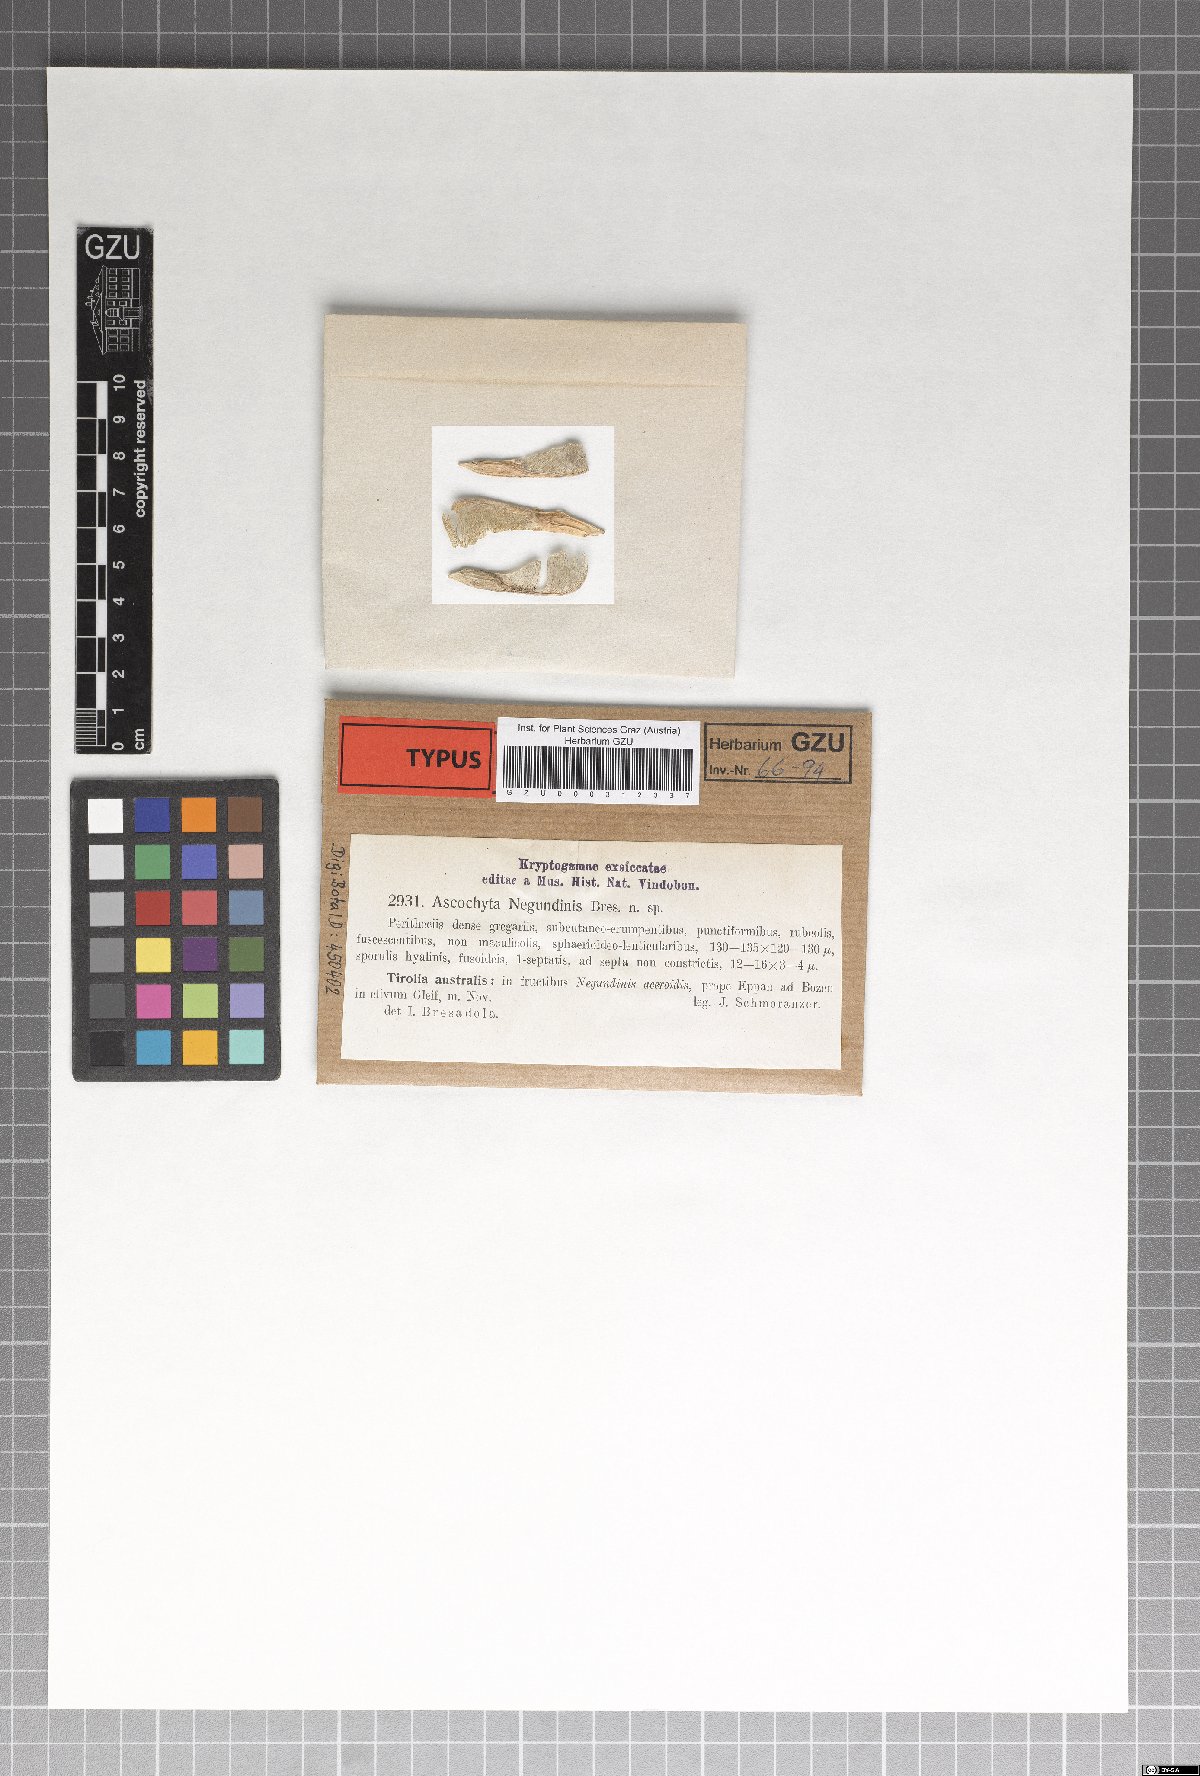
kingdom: Fungi
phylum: Ascomycota
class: Dothideomycetes
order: Pleosporales
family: Didymellaceae
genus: Ascochyta
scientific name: Ascochyta negundinis
